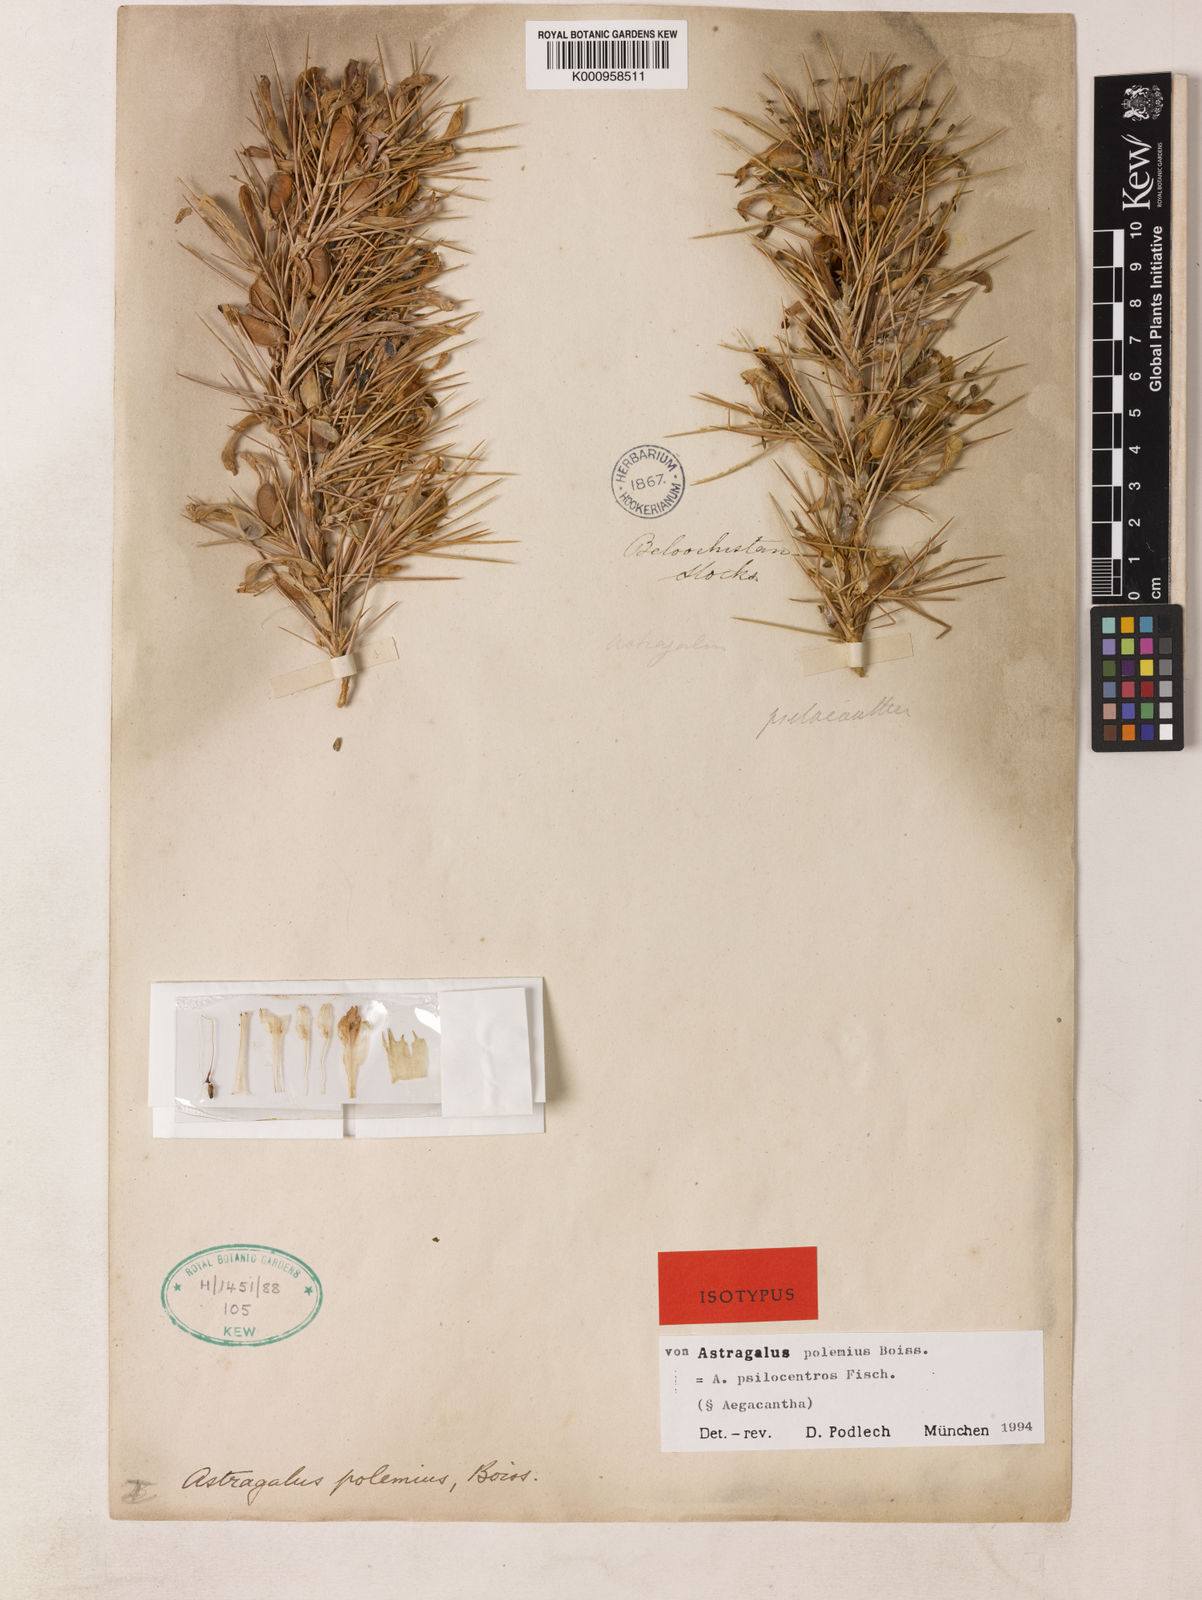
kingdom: Plantae
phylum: Tracheophyta
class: Magnoliopsida
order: Fabales
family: Fabaceae
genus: Astragalus
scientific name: Astragalus psilocentros
